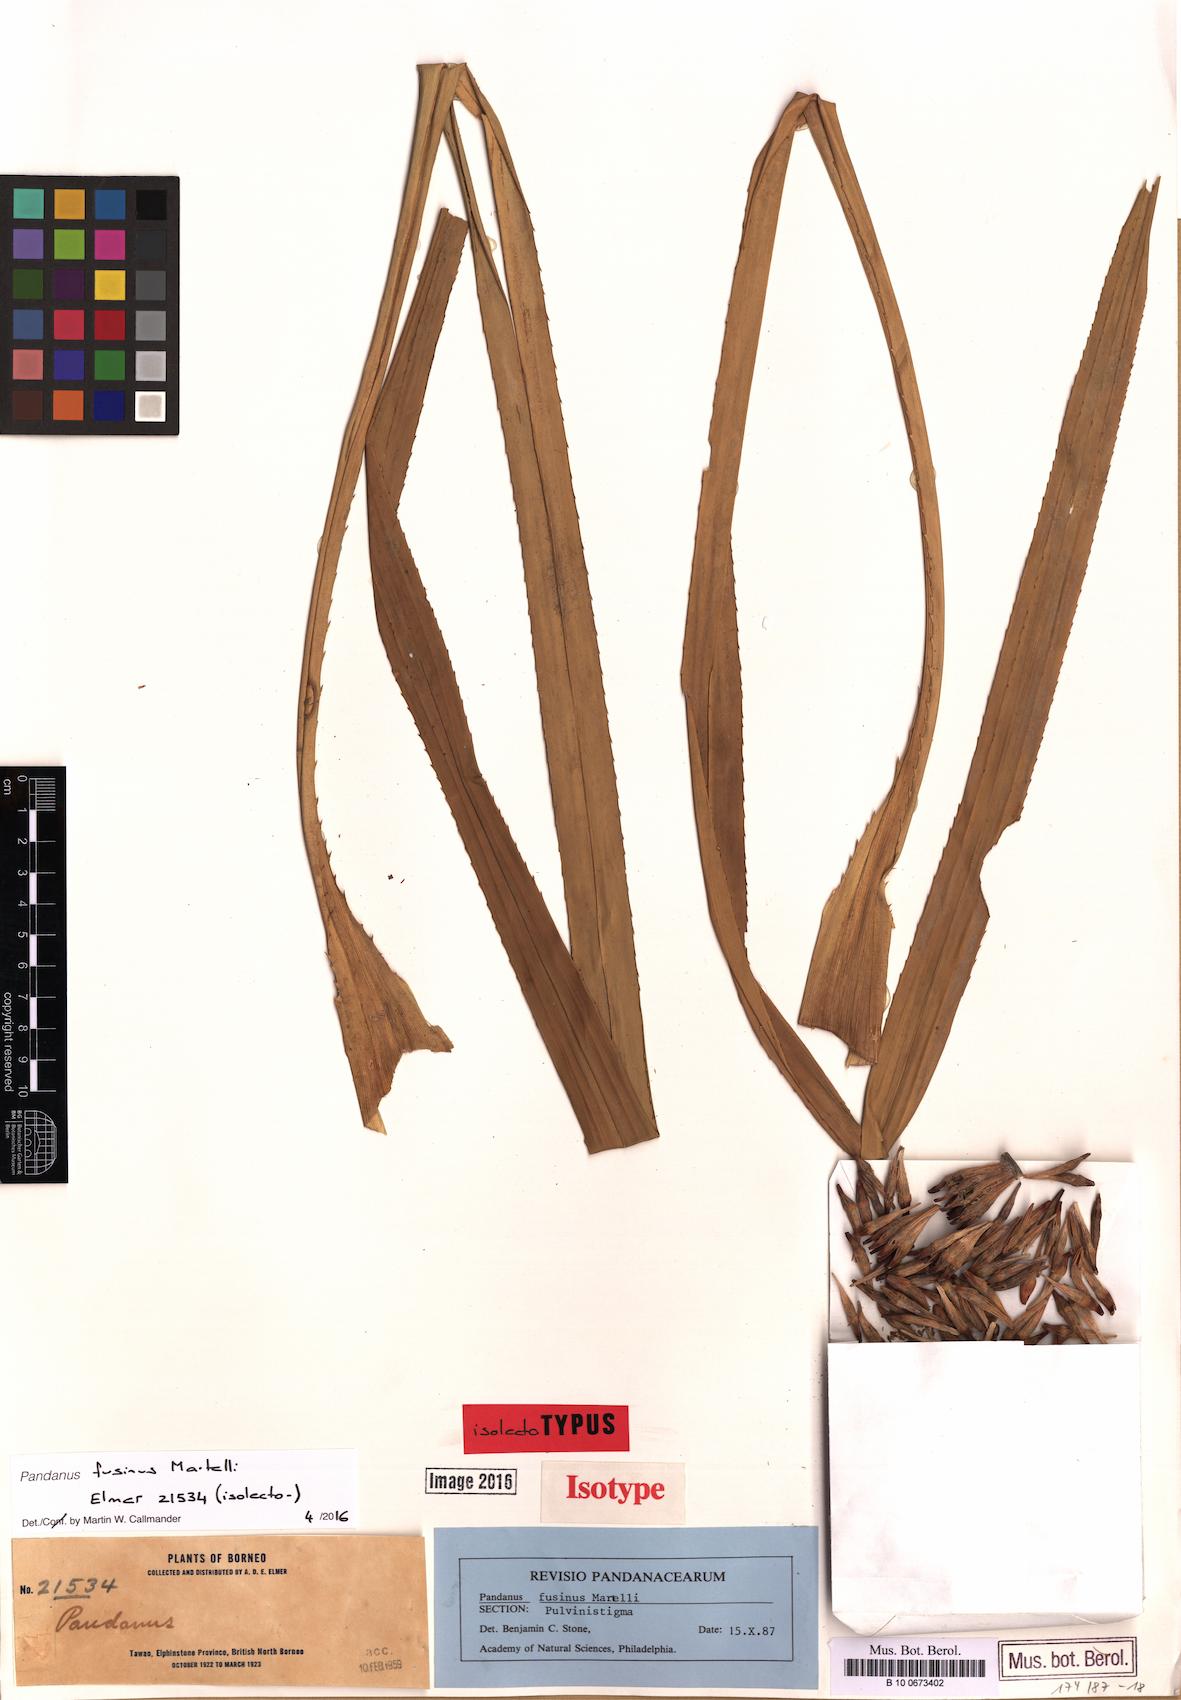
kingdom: Plantae
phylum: Tracheophyta
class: Liliopsida
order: Pandanales
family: Pandanaceae
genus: Pandanus
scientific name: Pandanus fusinus
